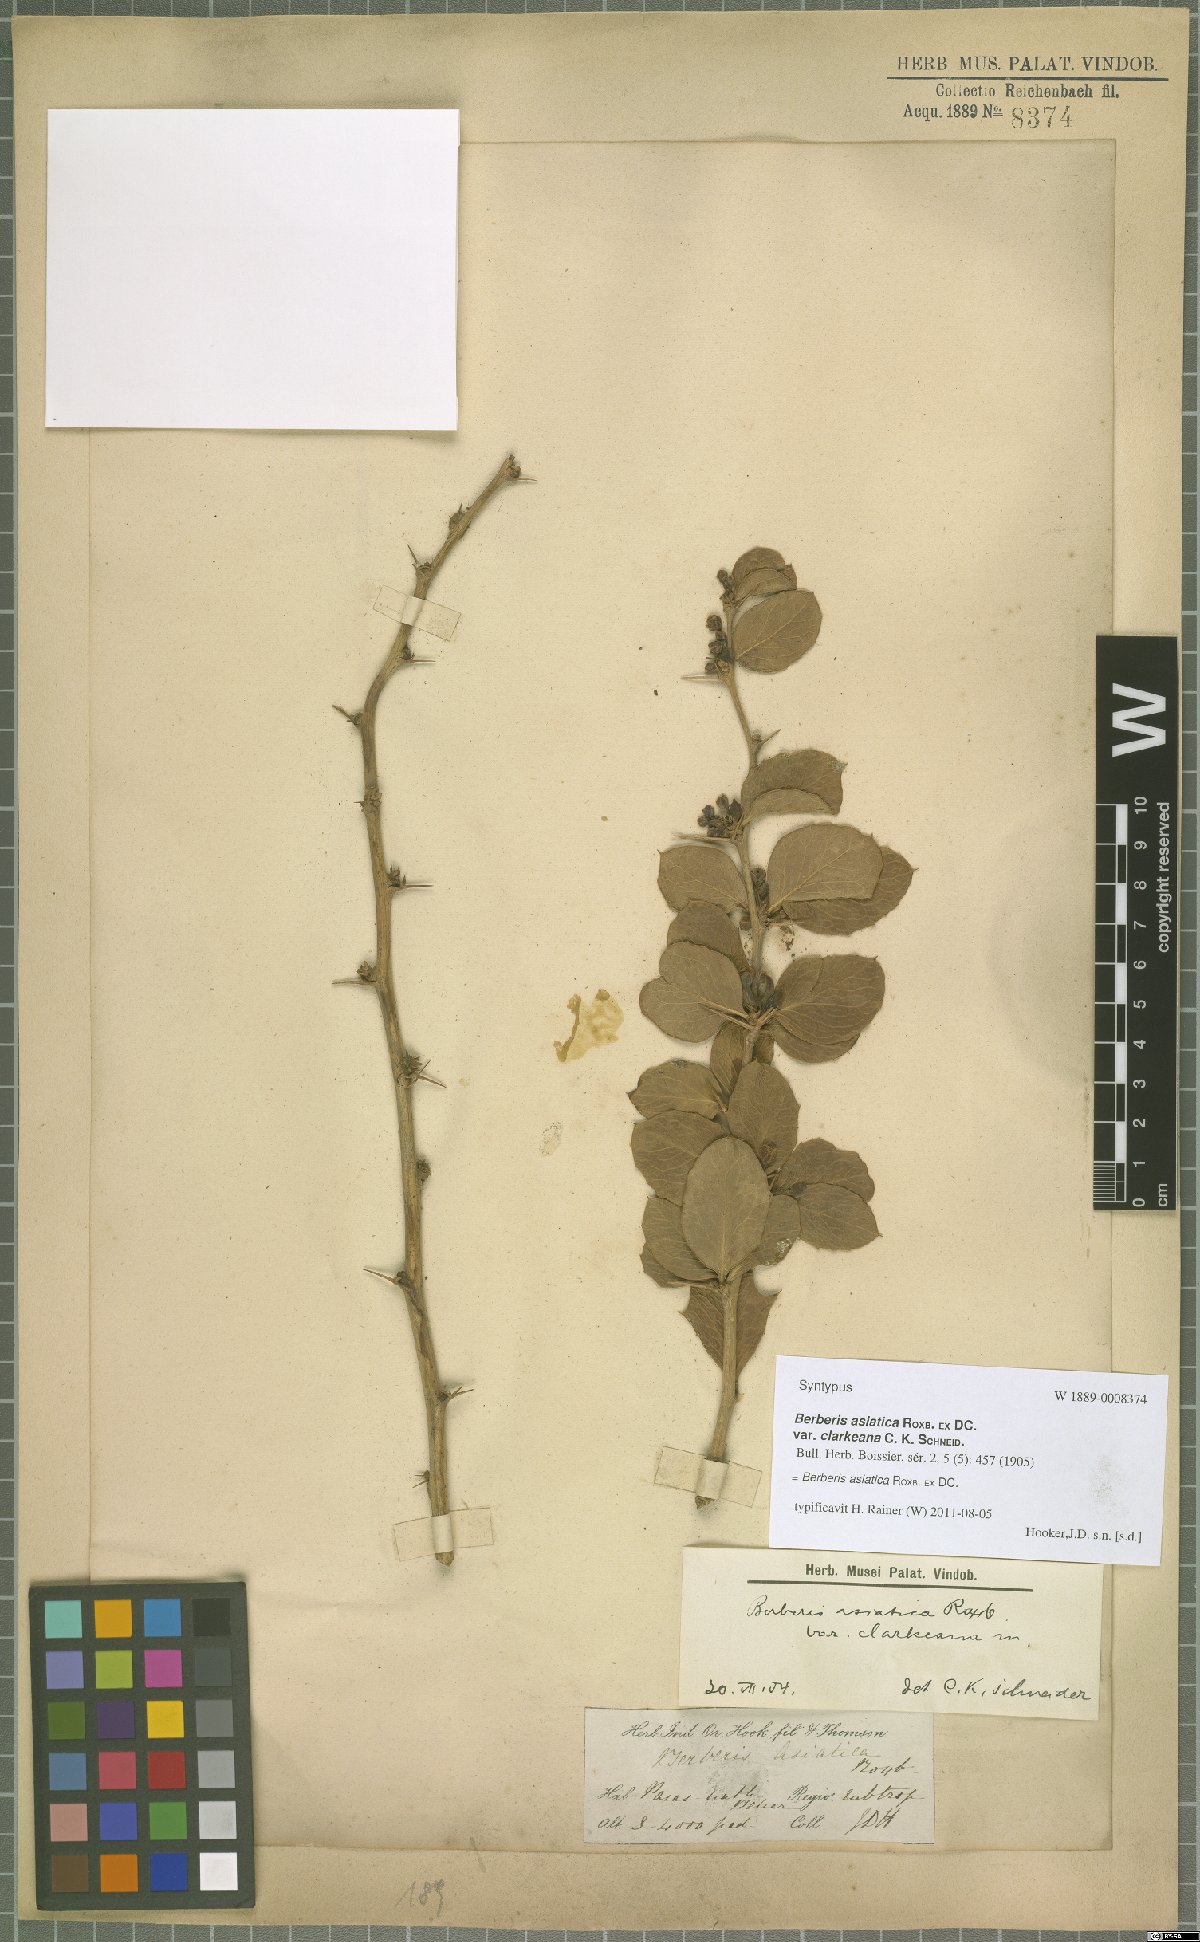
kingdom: Plantae
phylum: Tracheophyta
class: Magnoliopsida
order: Ranunculales
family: Berberidaceae
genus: Berberis
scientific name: Berberis asiatica
